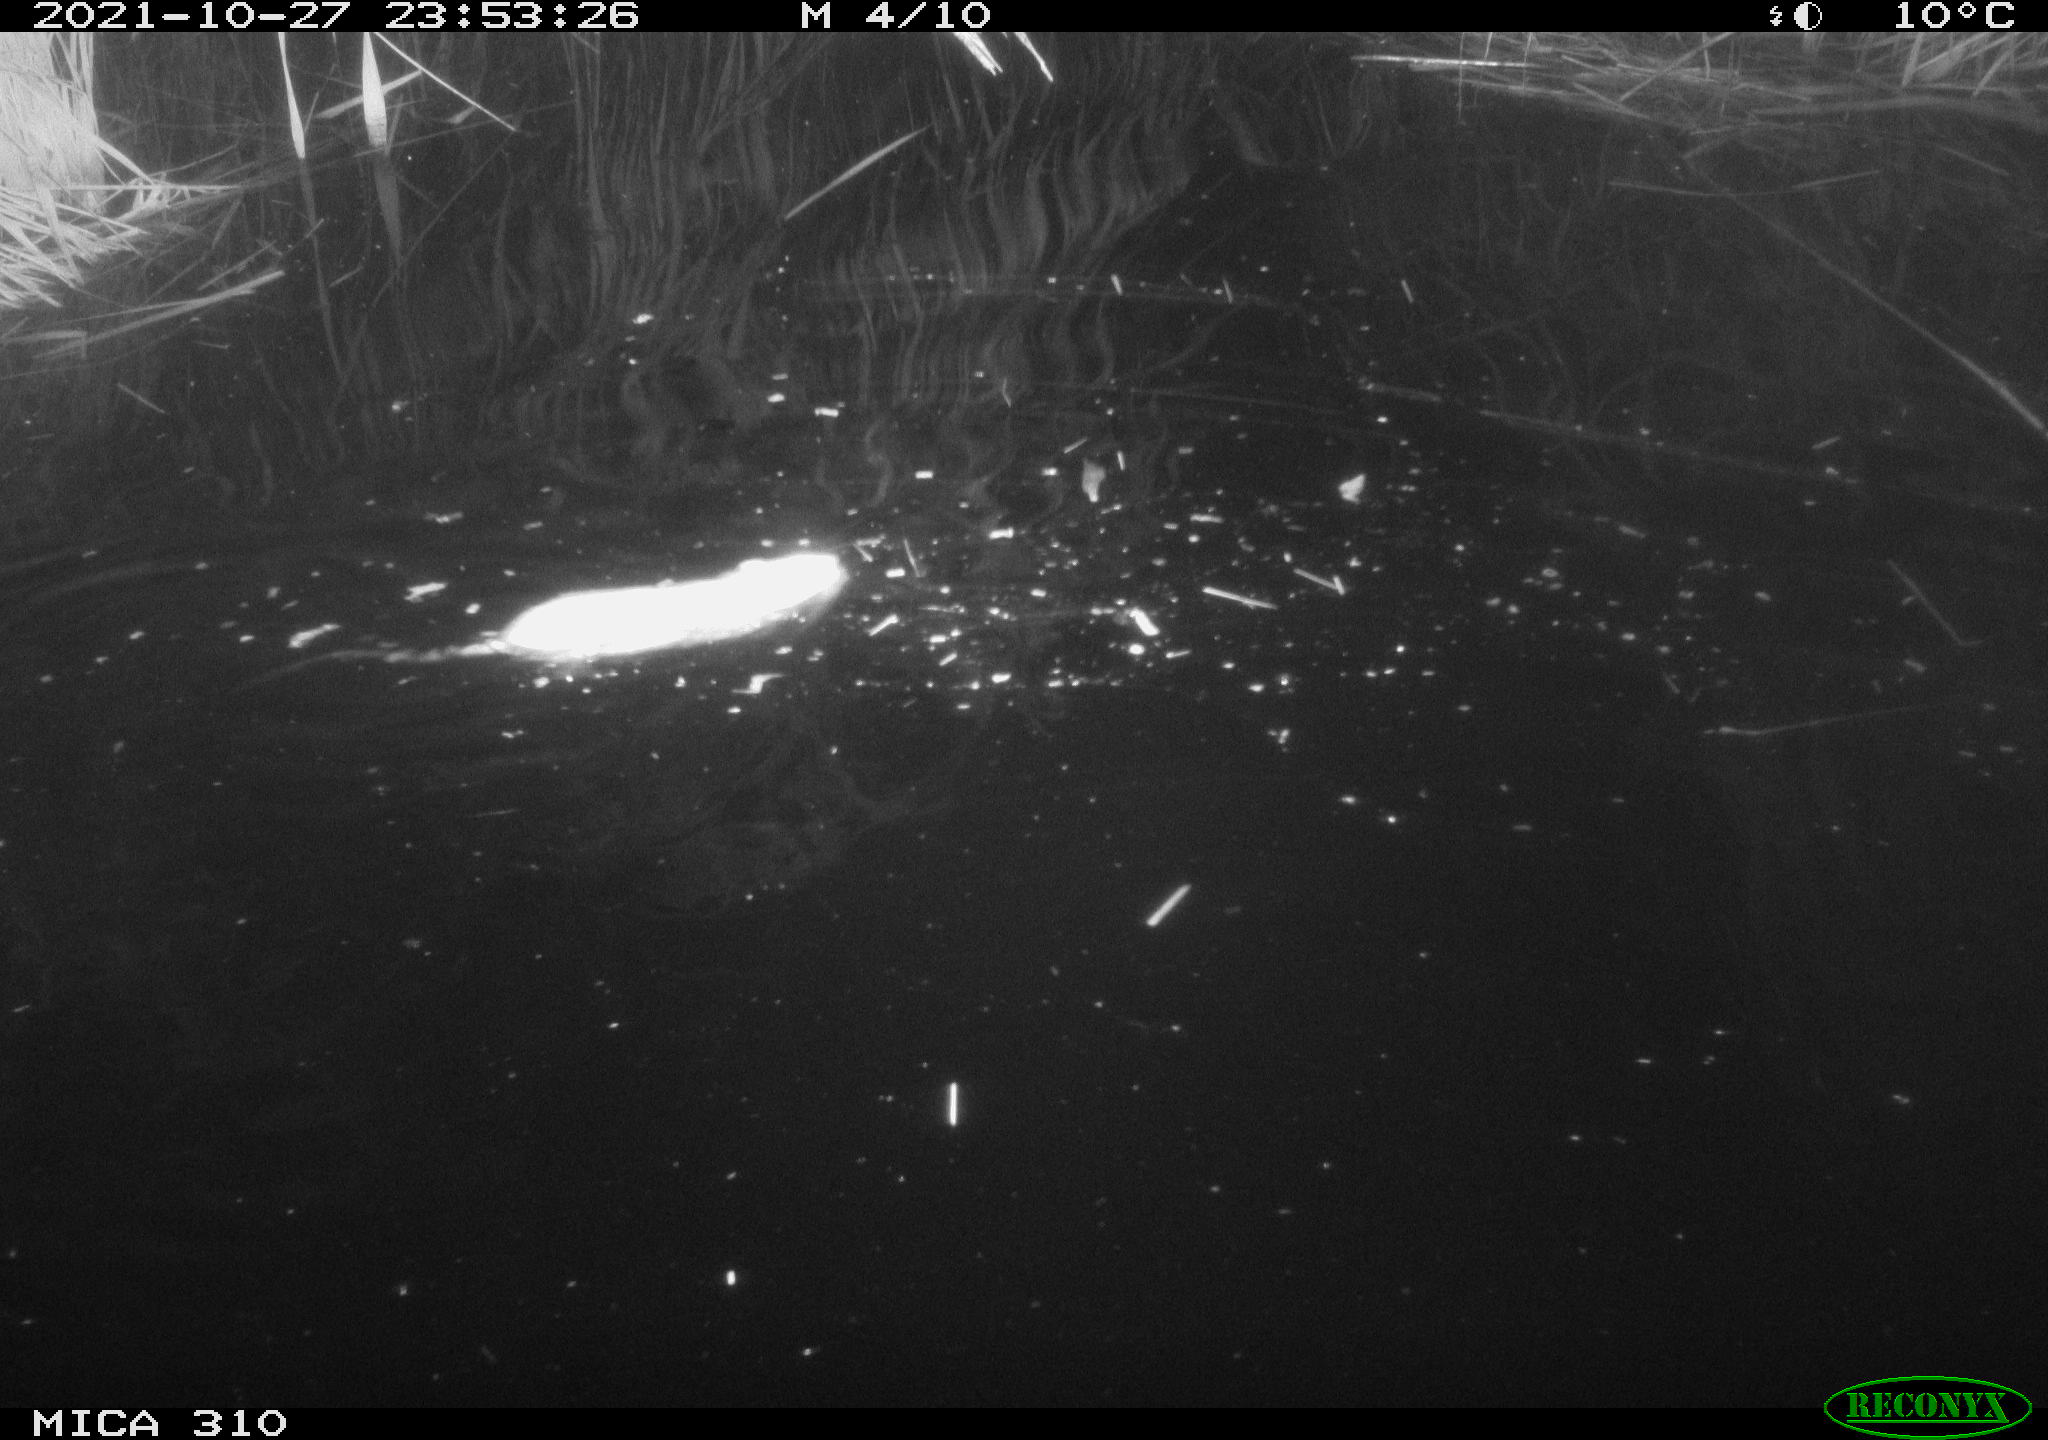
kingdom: Animalia
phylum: Chordata
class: Mammalia
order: Rodentia
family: Muridae
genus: Rattus
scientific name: Rattus norvegicus
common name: Brown rat
